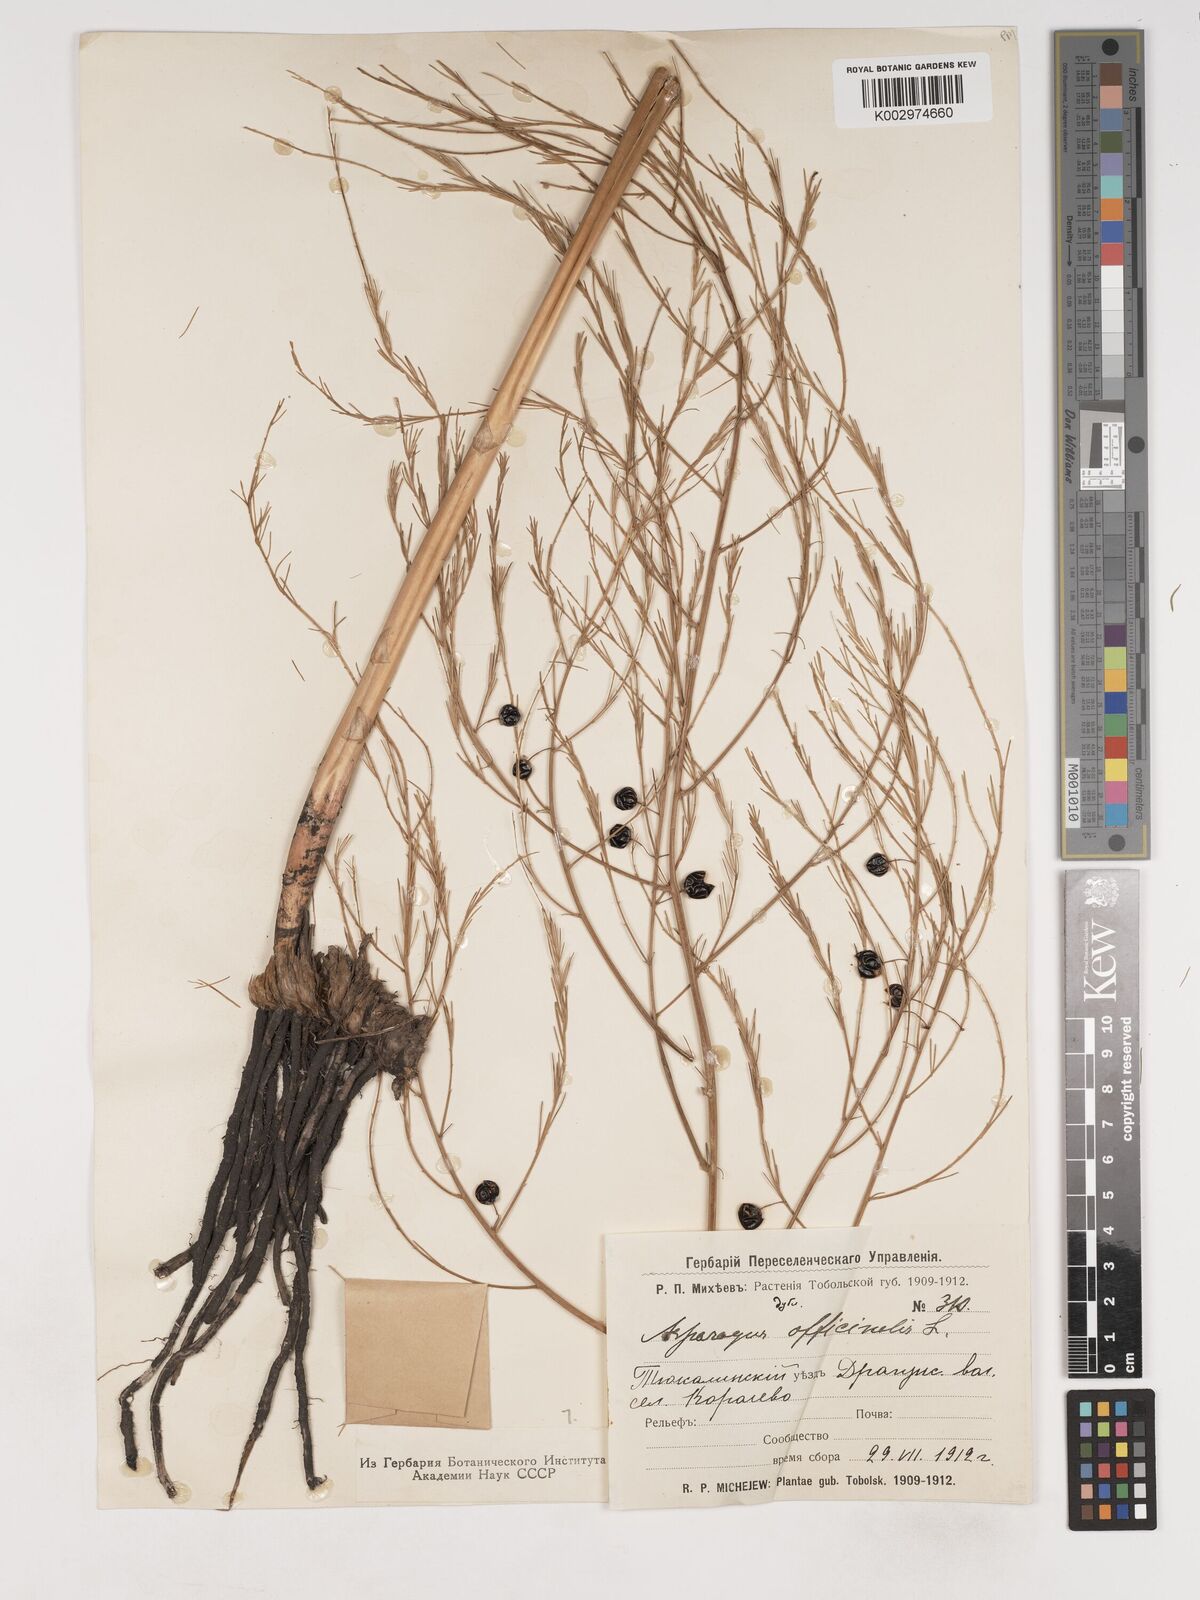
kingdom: Plantae
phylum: Tracheophyta
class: Liliopsida
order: Asparagales
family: Asparagaceae
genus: Asparagus
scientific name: Asparagus officinalis
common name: Garden asparagus
